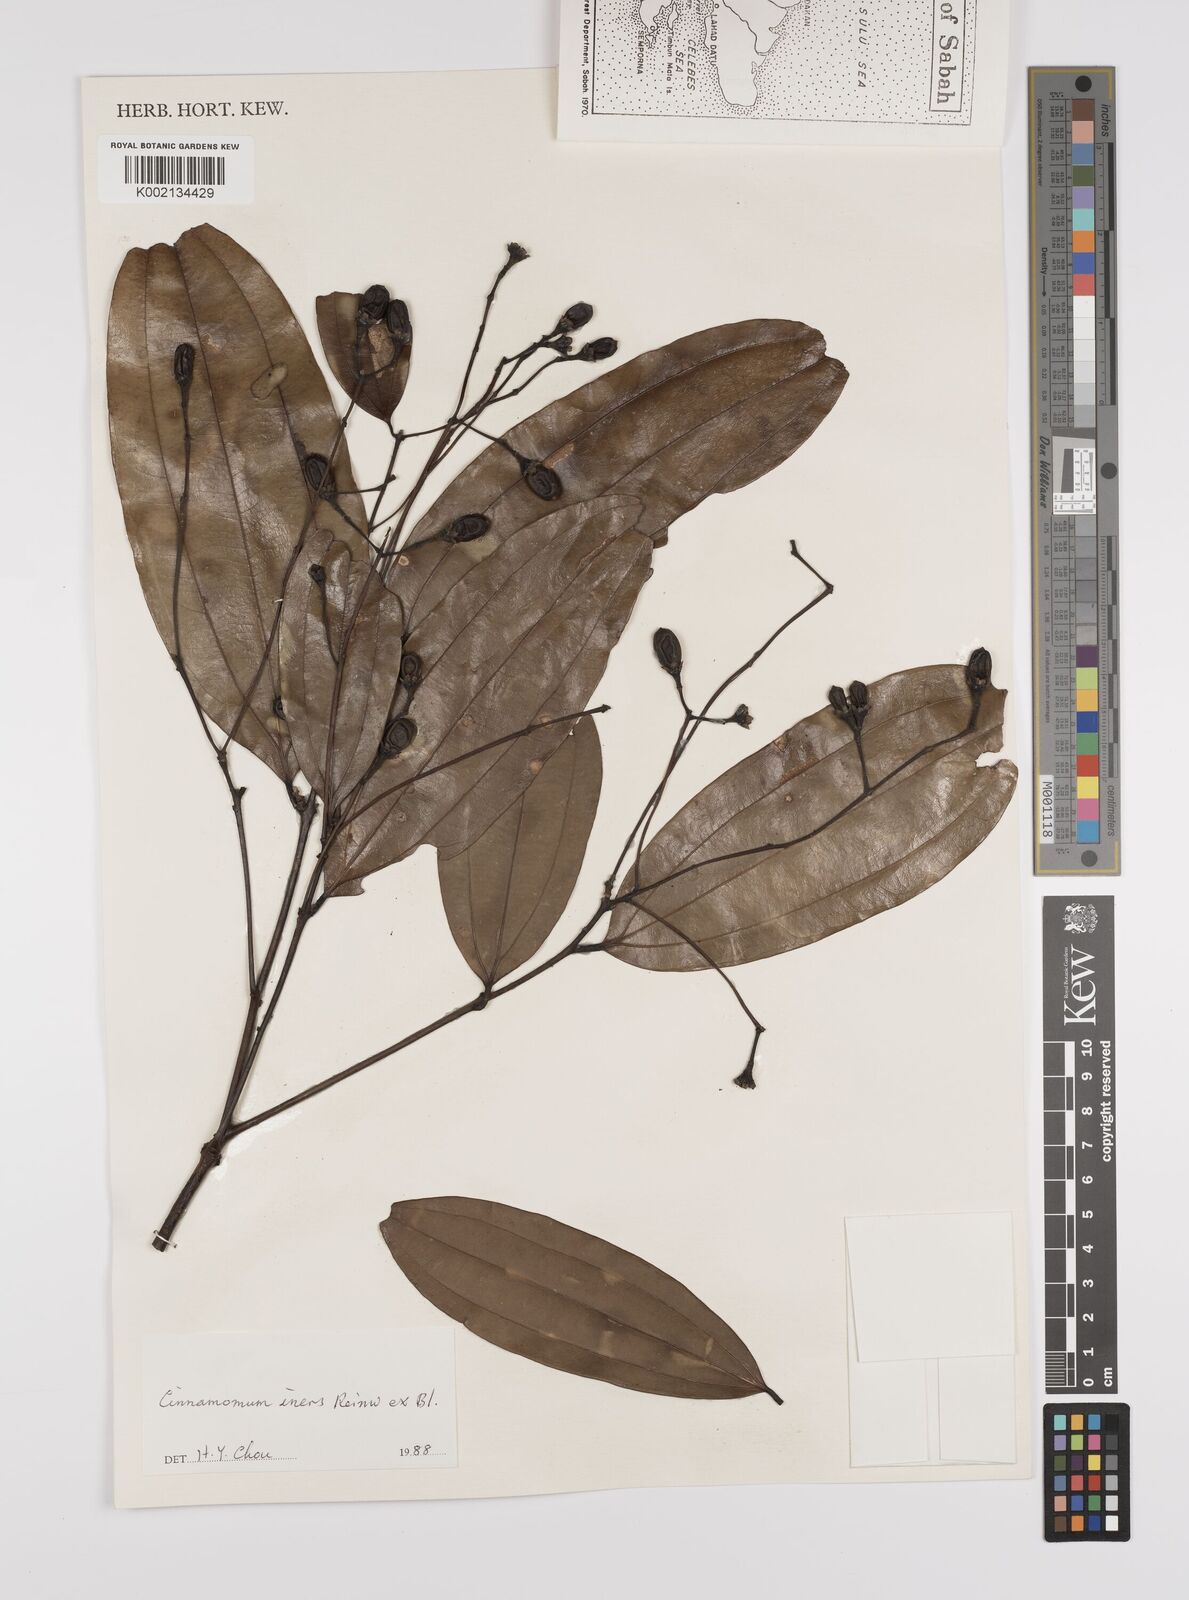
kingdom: Plantae
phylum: Tracheophyta
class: Magnoliopsida
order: Laurales
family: Lauraceae
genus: Cinnamomum
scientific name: Cinnamomum iners
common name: Wild cinnamon
